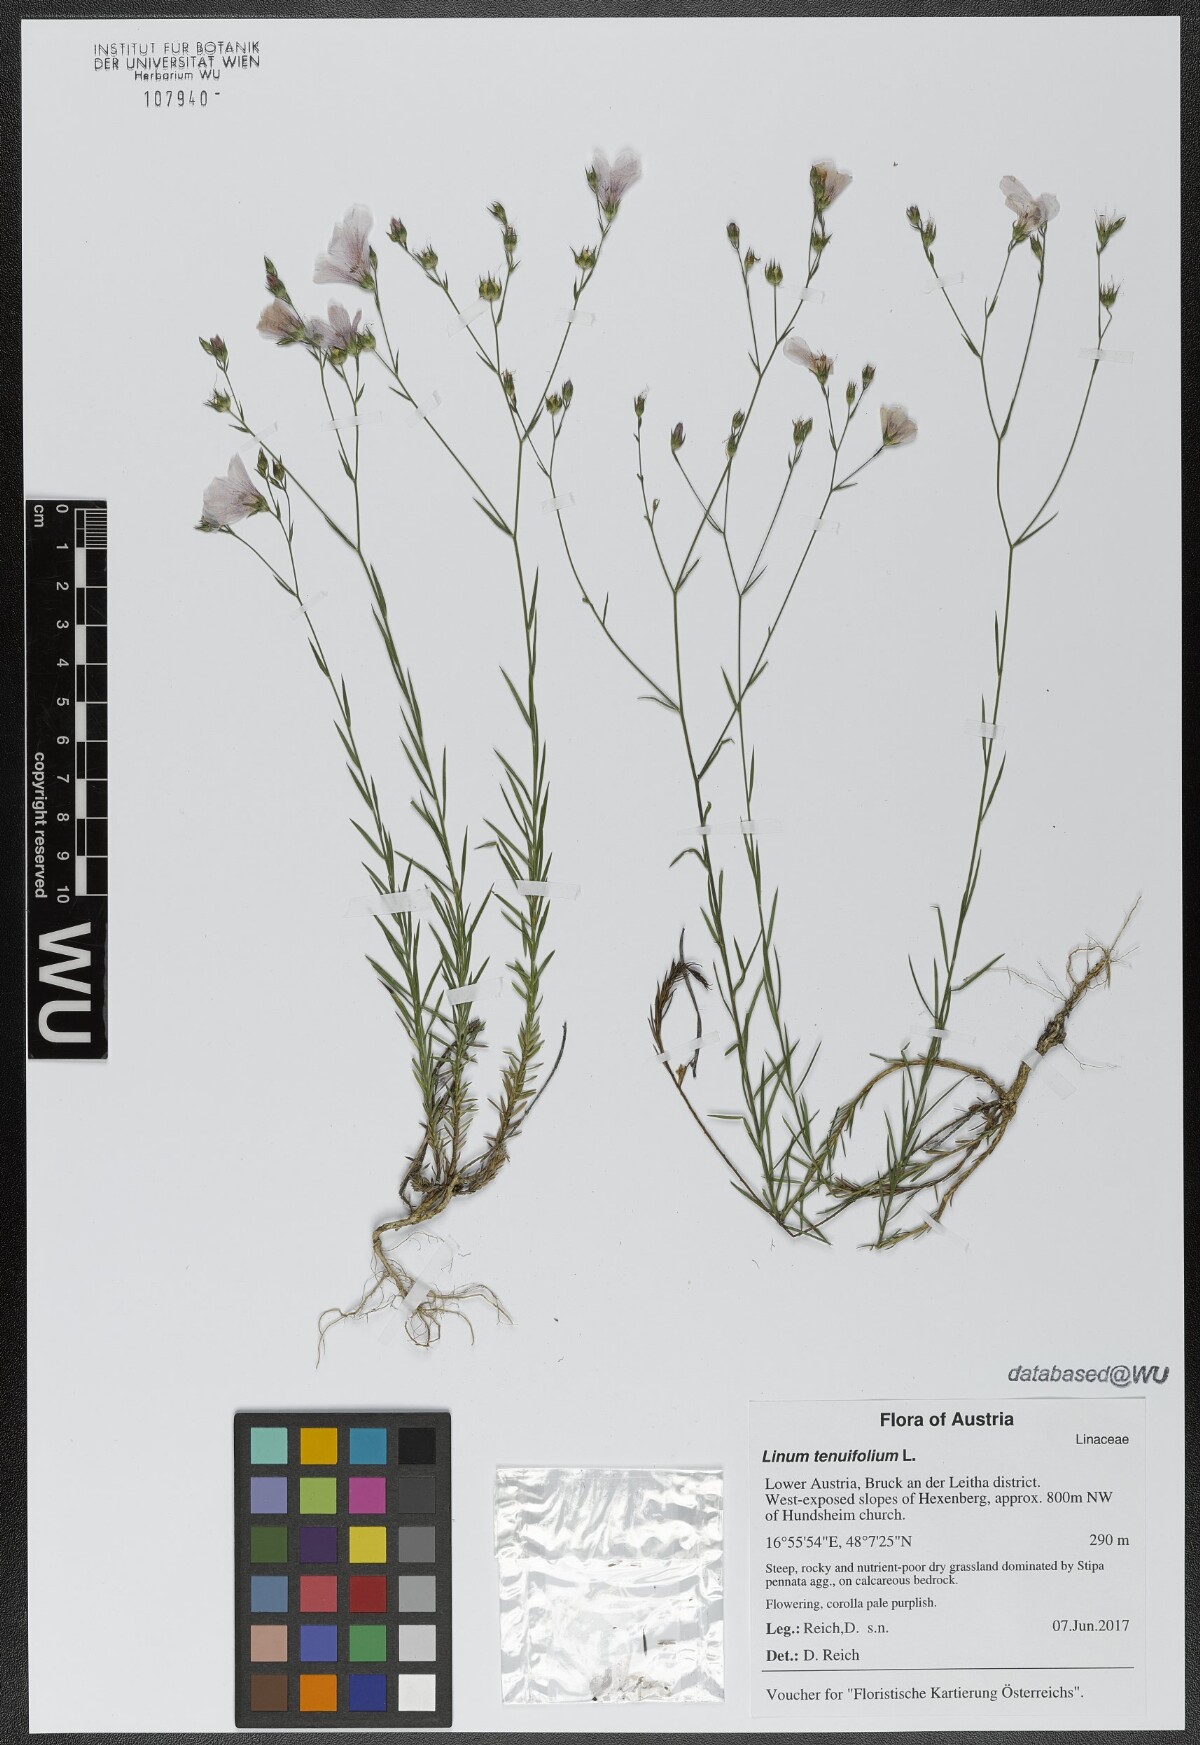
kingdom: Plantae
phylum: Tracheophyta
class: Magnoliopsida
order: Malpighiales
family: Linaceae
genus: Linum
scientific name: Linum tenuifolium
